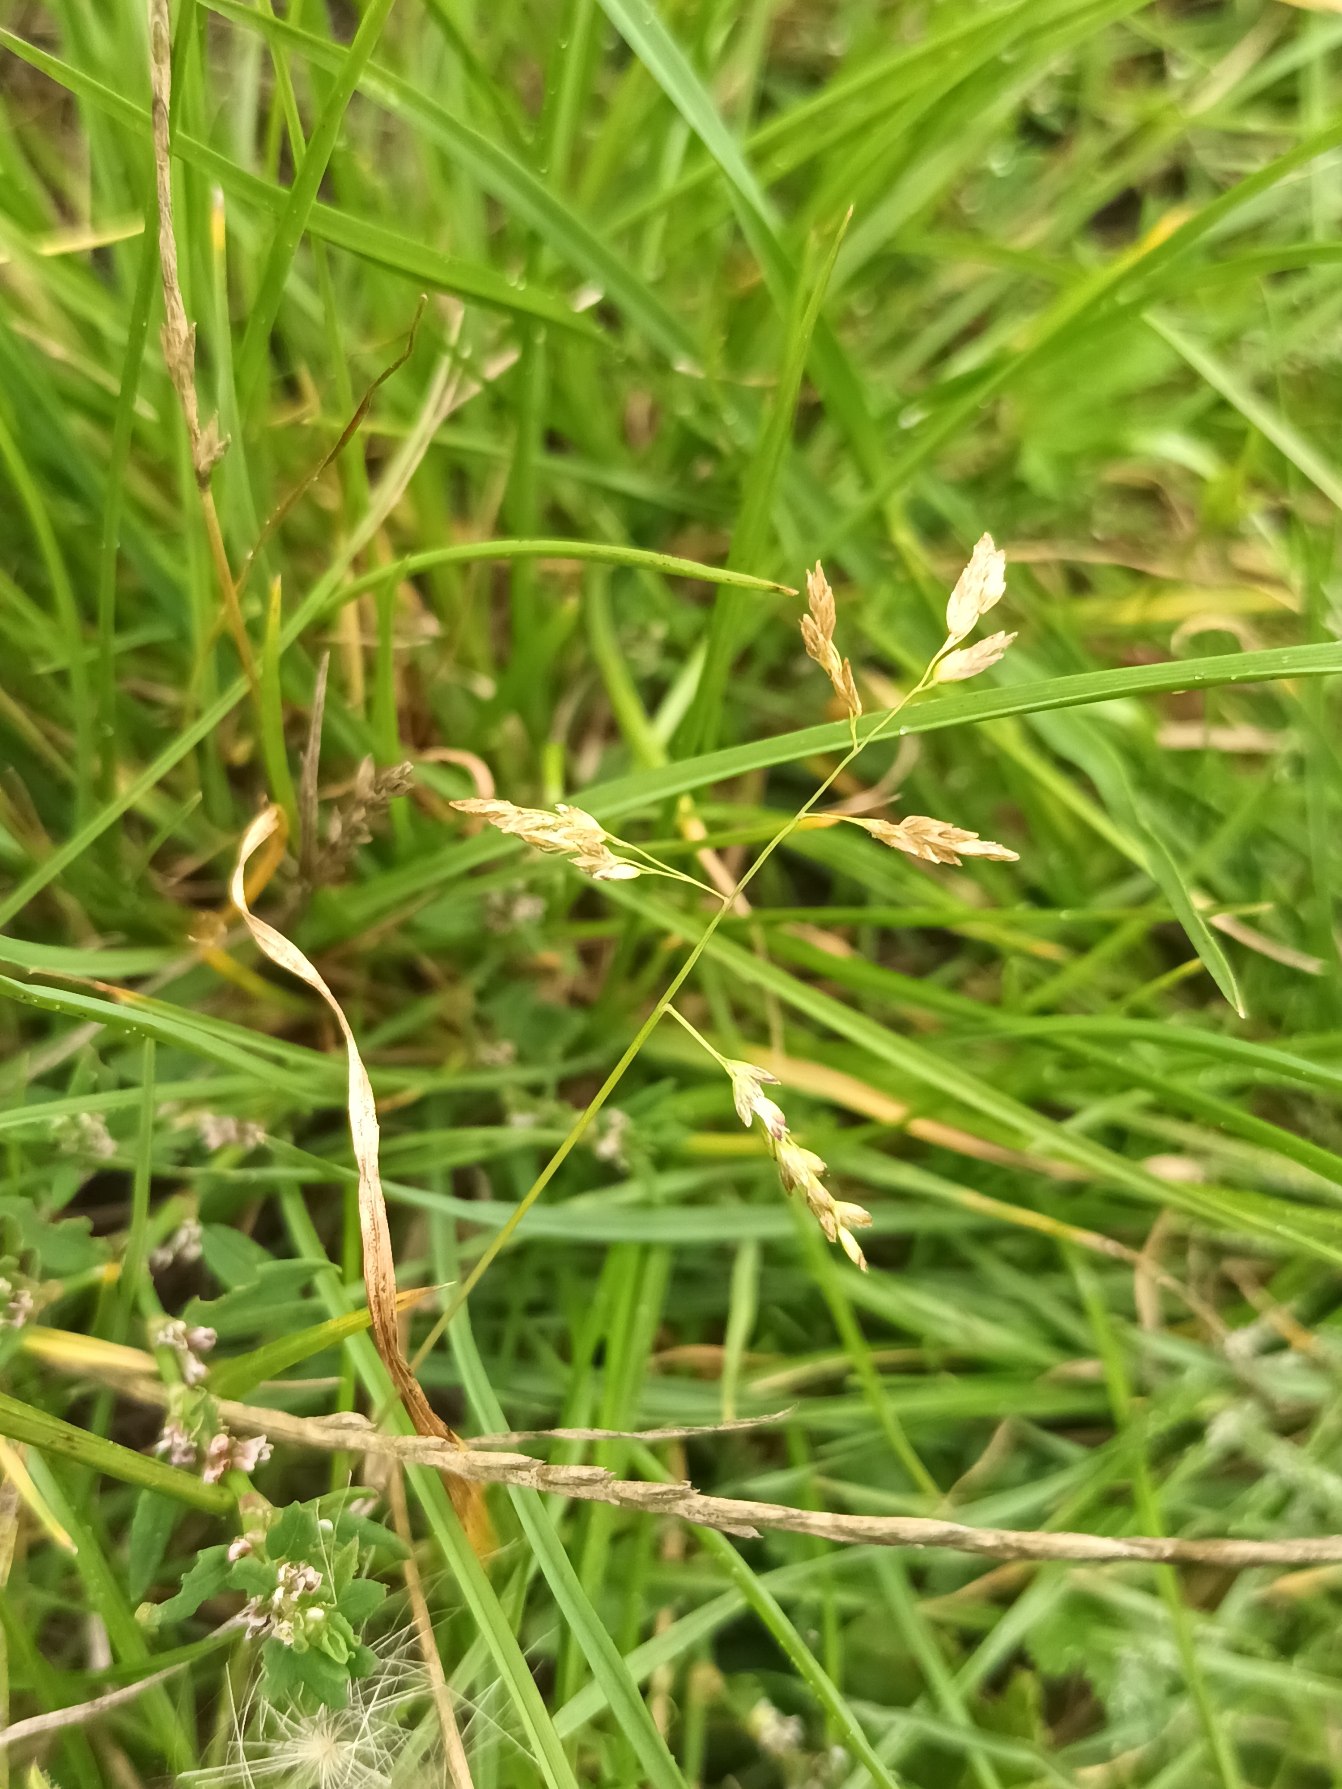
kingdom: Plantae
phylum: Tracheophyta
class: Liliopsida
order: Poales
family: Poaceae
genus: Poa
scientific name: Poa annua
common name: Enårig rapgræs
